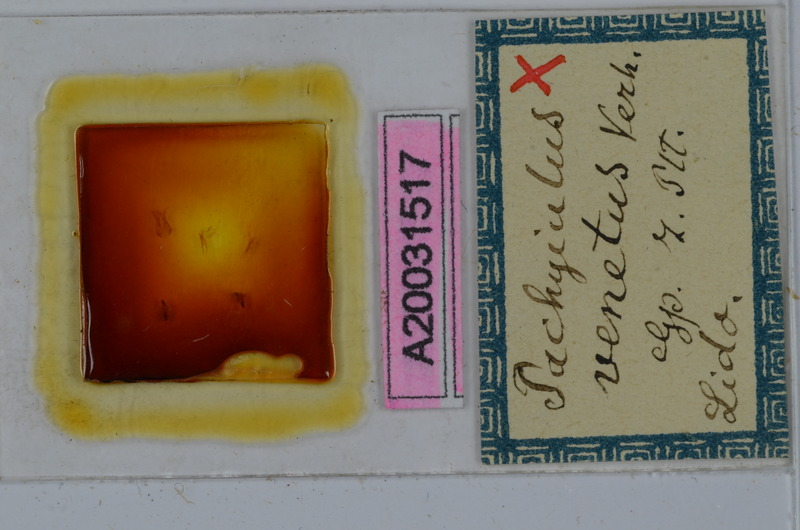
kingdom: Animalia
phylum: Arthropoda
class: Diplopoda
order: Julida
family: Julidae
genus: Pachyiulus
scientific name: Pachyiulus cattarensis
